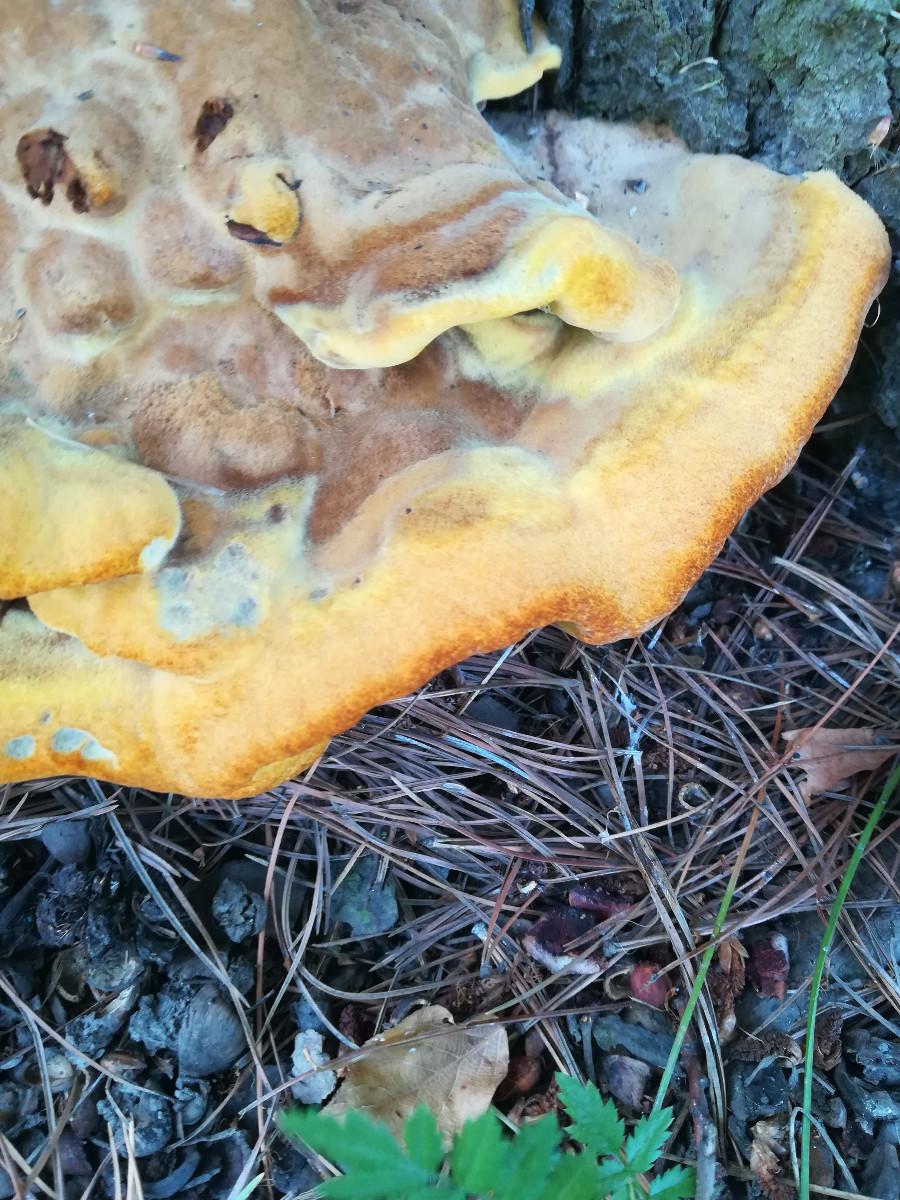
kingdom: Fungi
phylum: Basidiomycota
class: Agaricomycetes
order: Polyporales
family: Laetiporaceae
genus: Phaeolus
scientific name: Phaeolus schweinitzii
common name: brunporesvamp
